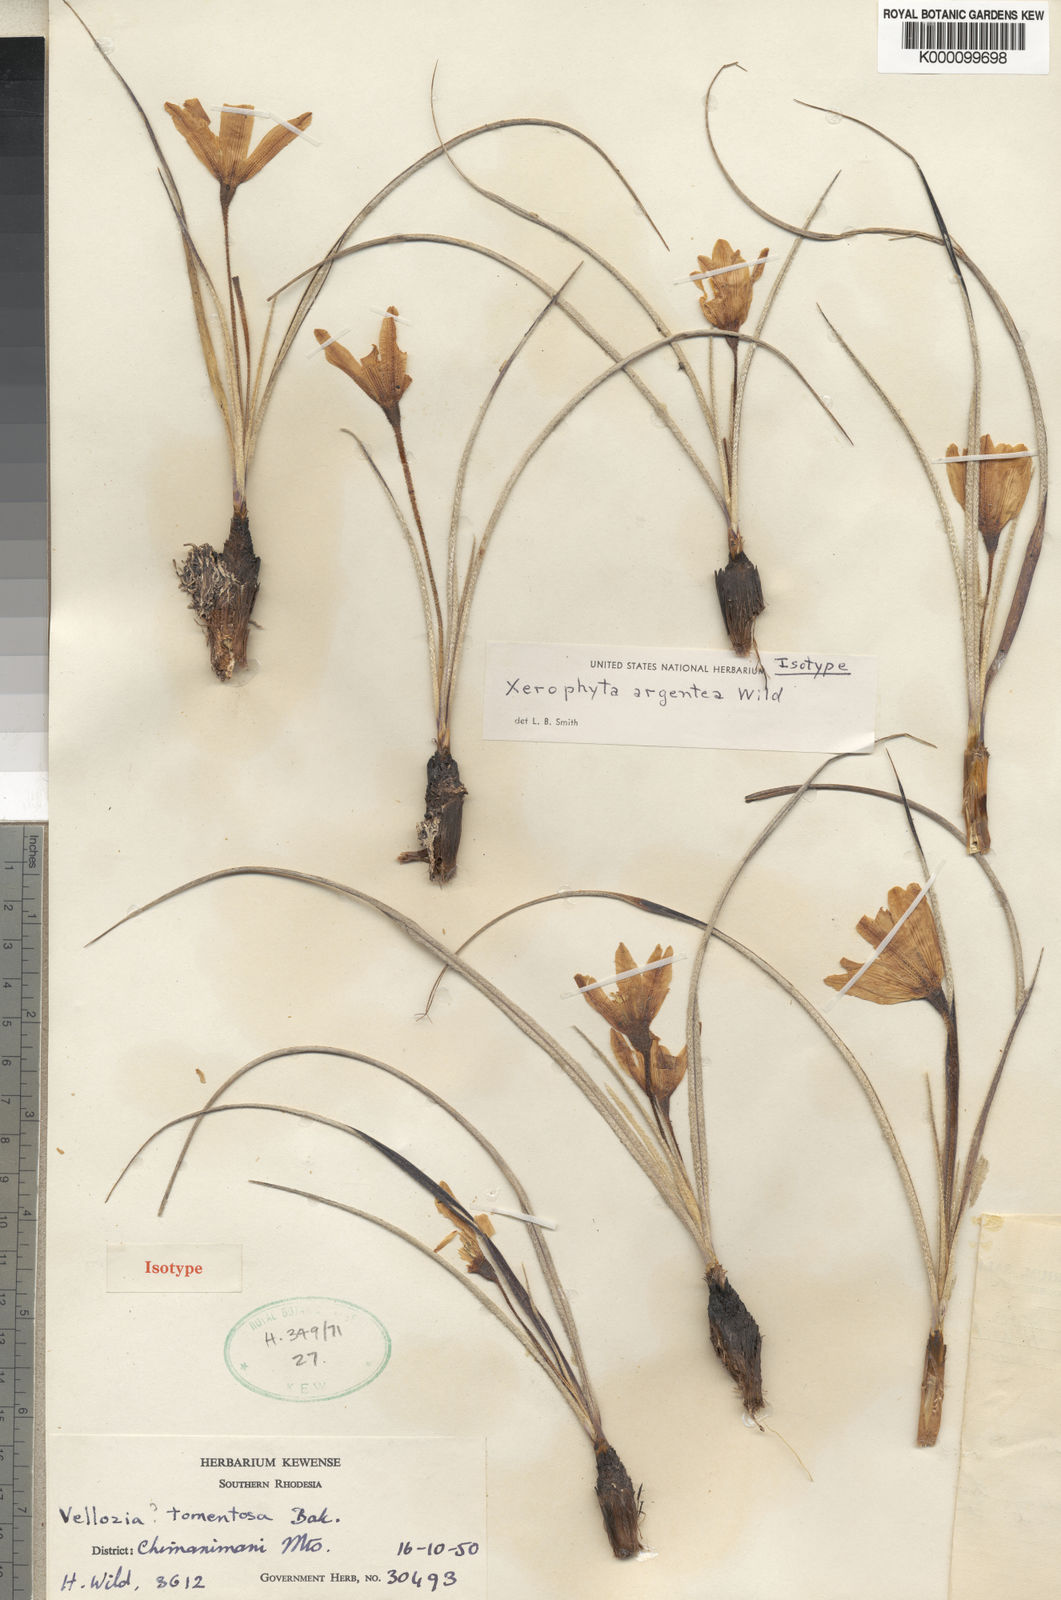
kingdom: Plantae
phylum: Tracheophyta
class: Liliopsida
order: Pandanales
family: Velloziaceae
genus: Xerophyta
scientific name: Xerophyta argentea
